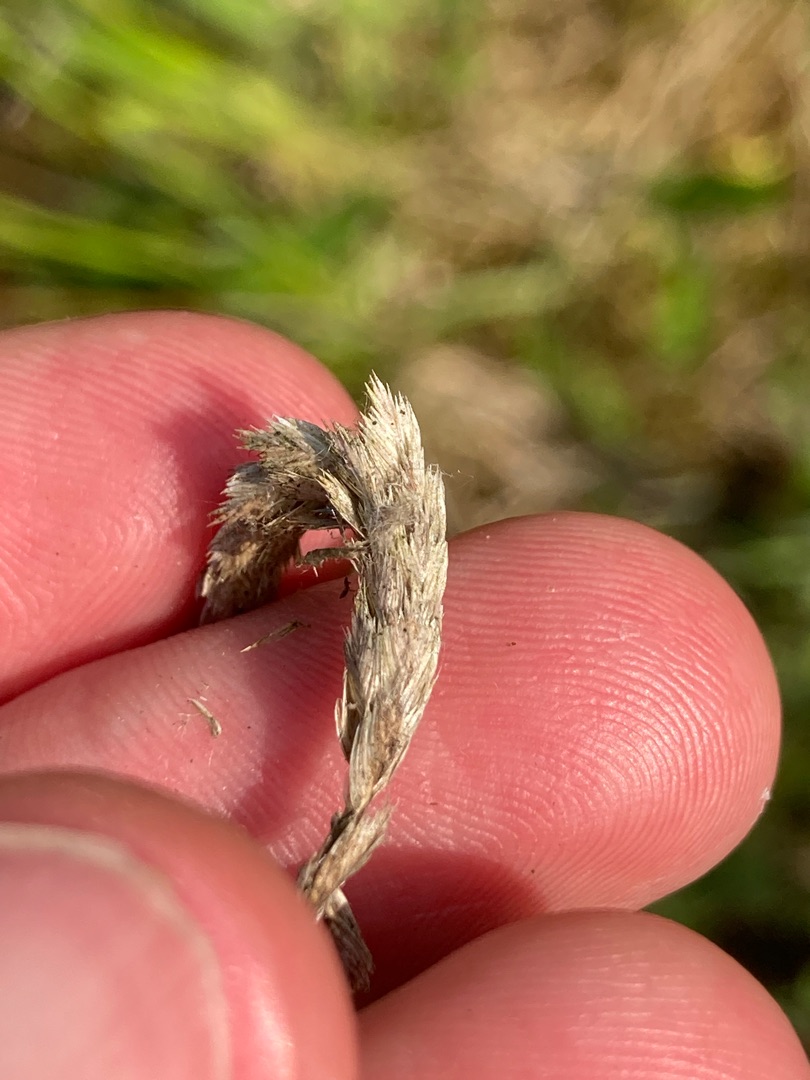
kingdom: Plantae
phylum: Tracheophyta
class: Liliopsida
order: Poales
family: Poaceae
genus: Cynosurus
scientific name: Cynosurus cristatus
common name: Kamgræs
